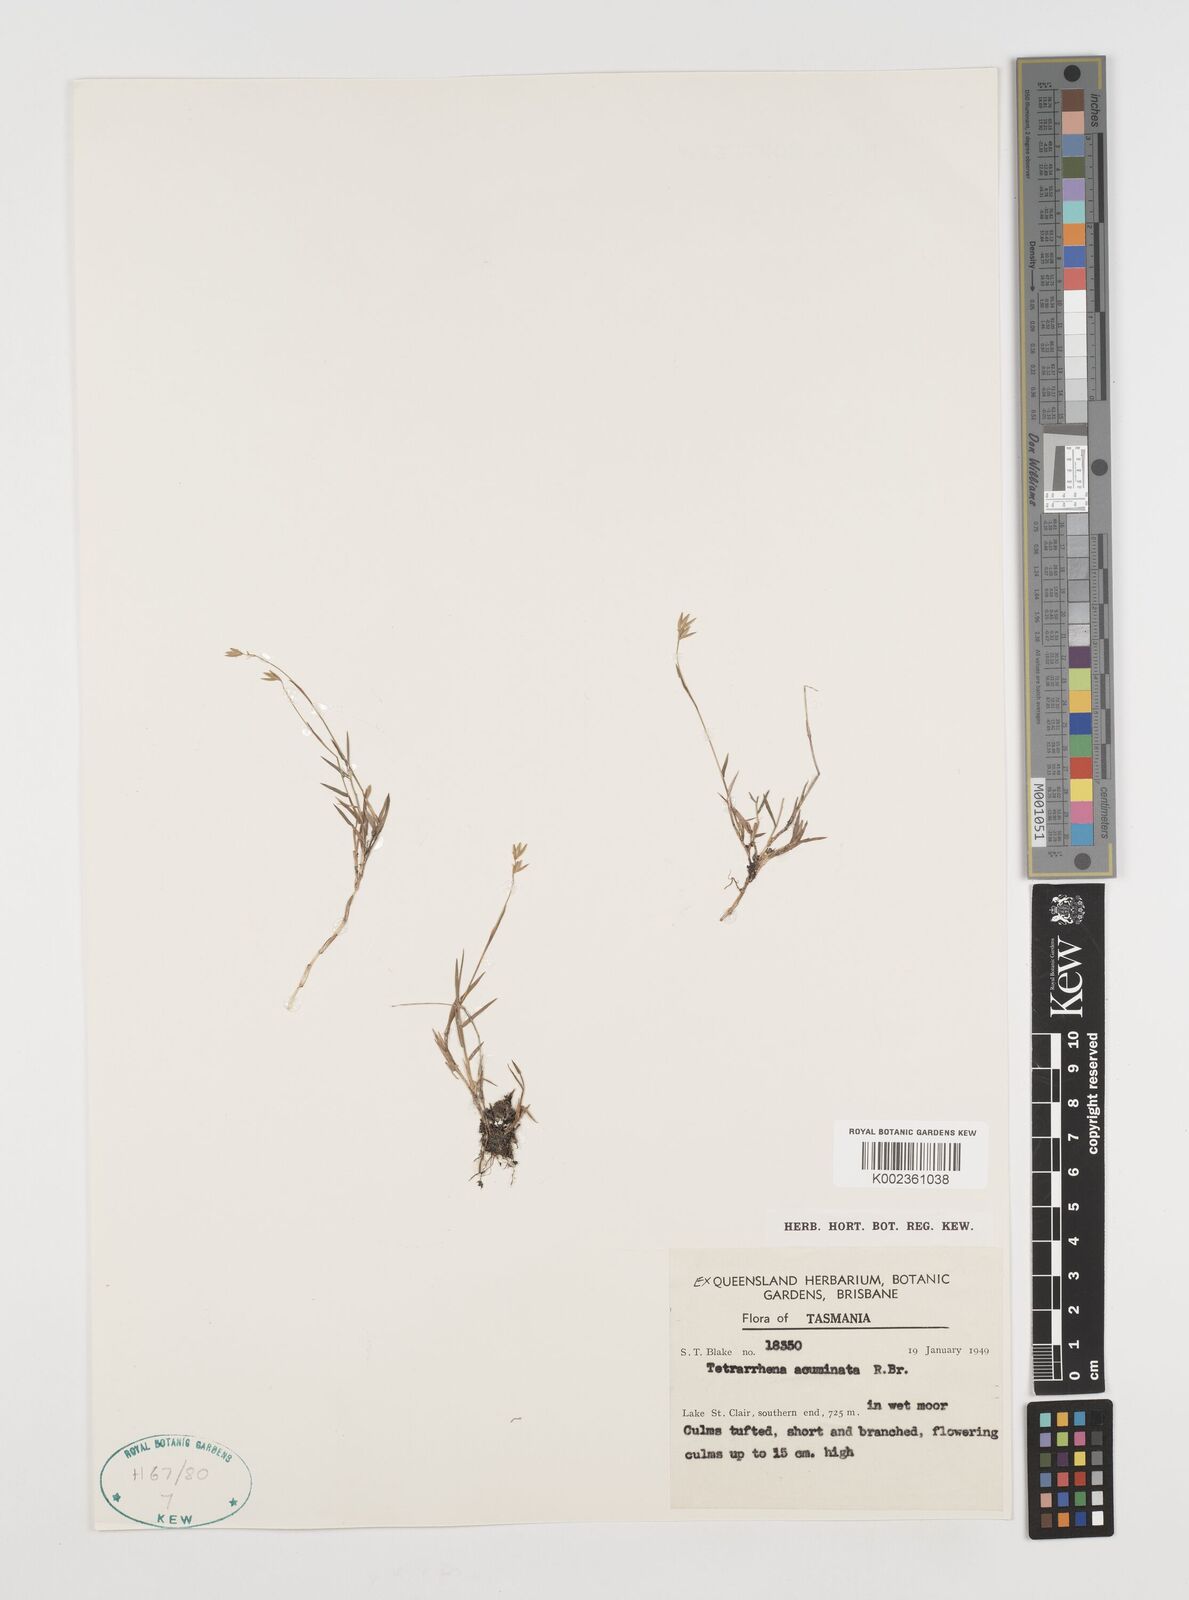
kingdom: Plantae
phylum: Tracheophyta
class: Liliopsida
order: Poales
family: Poaceae
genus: Tetrarrhena
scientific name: Tetrarrhena acuminata
